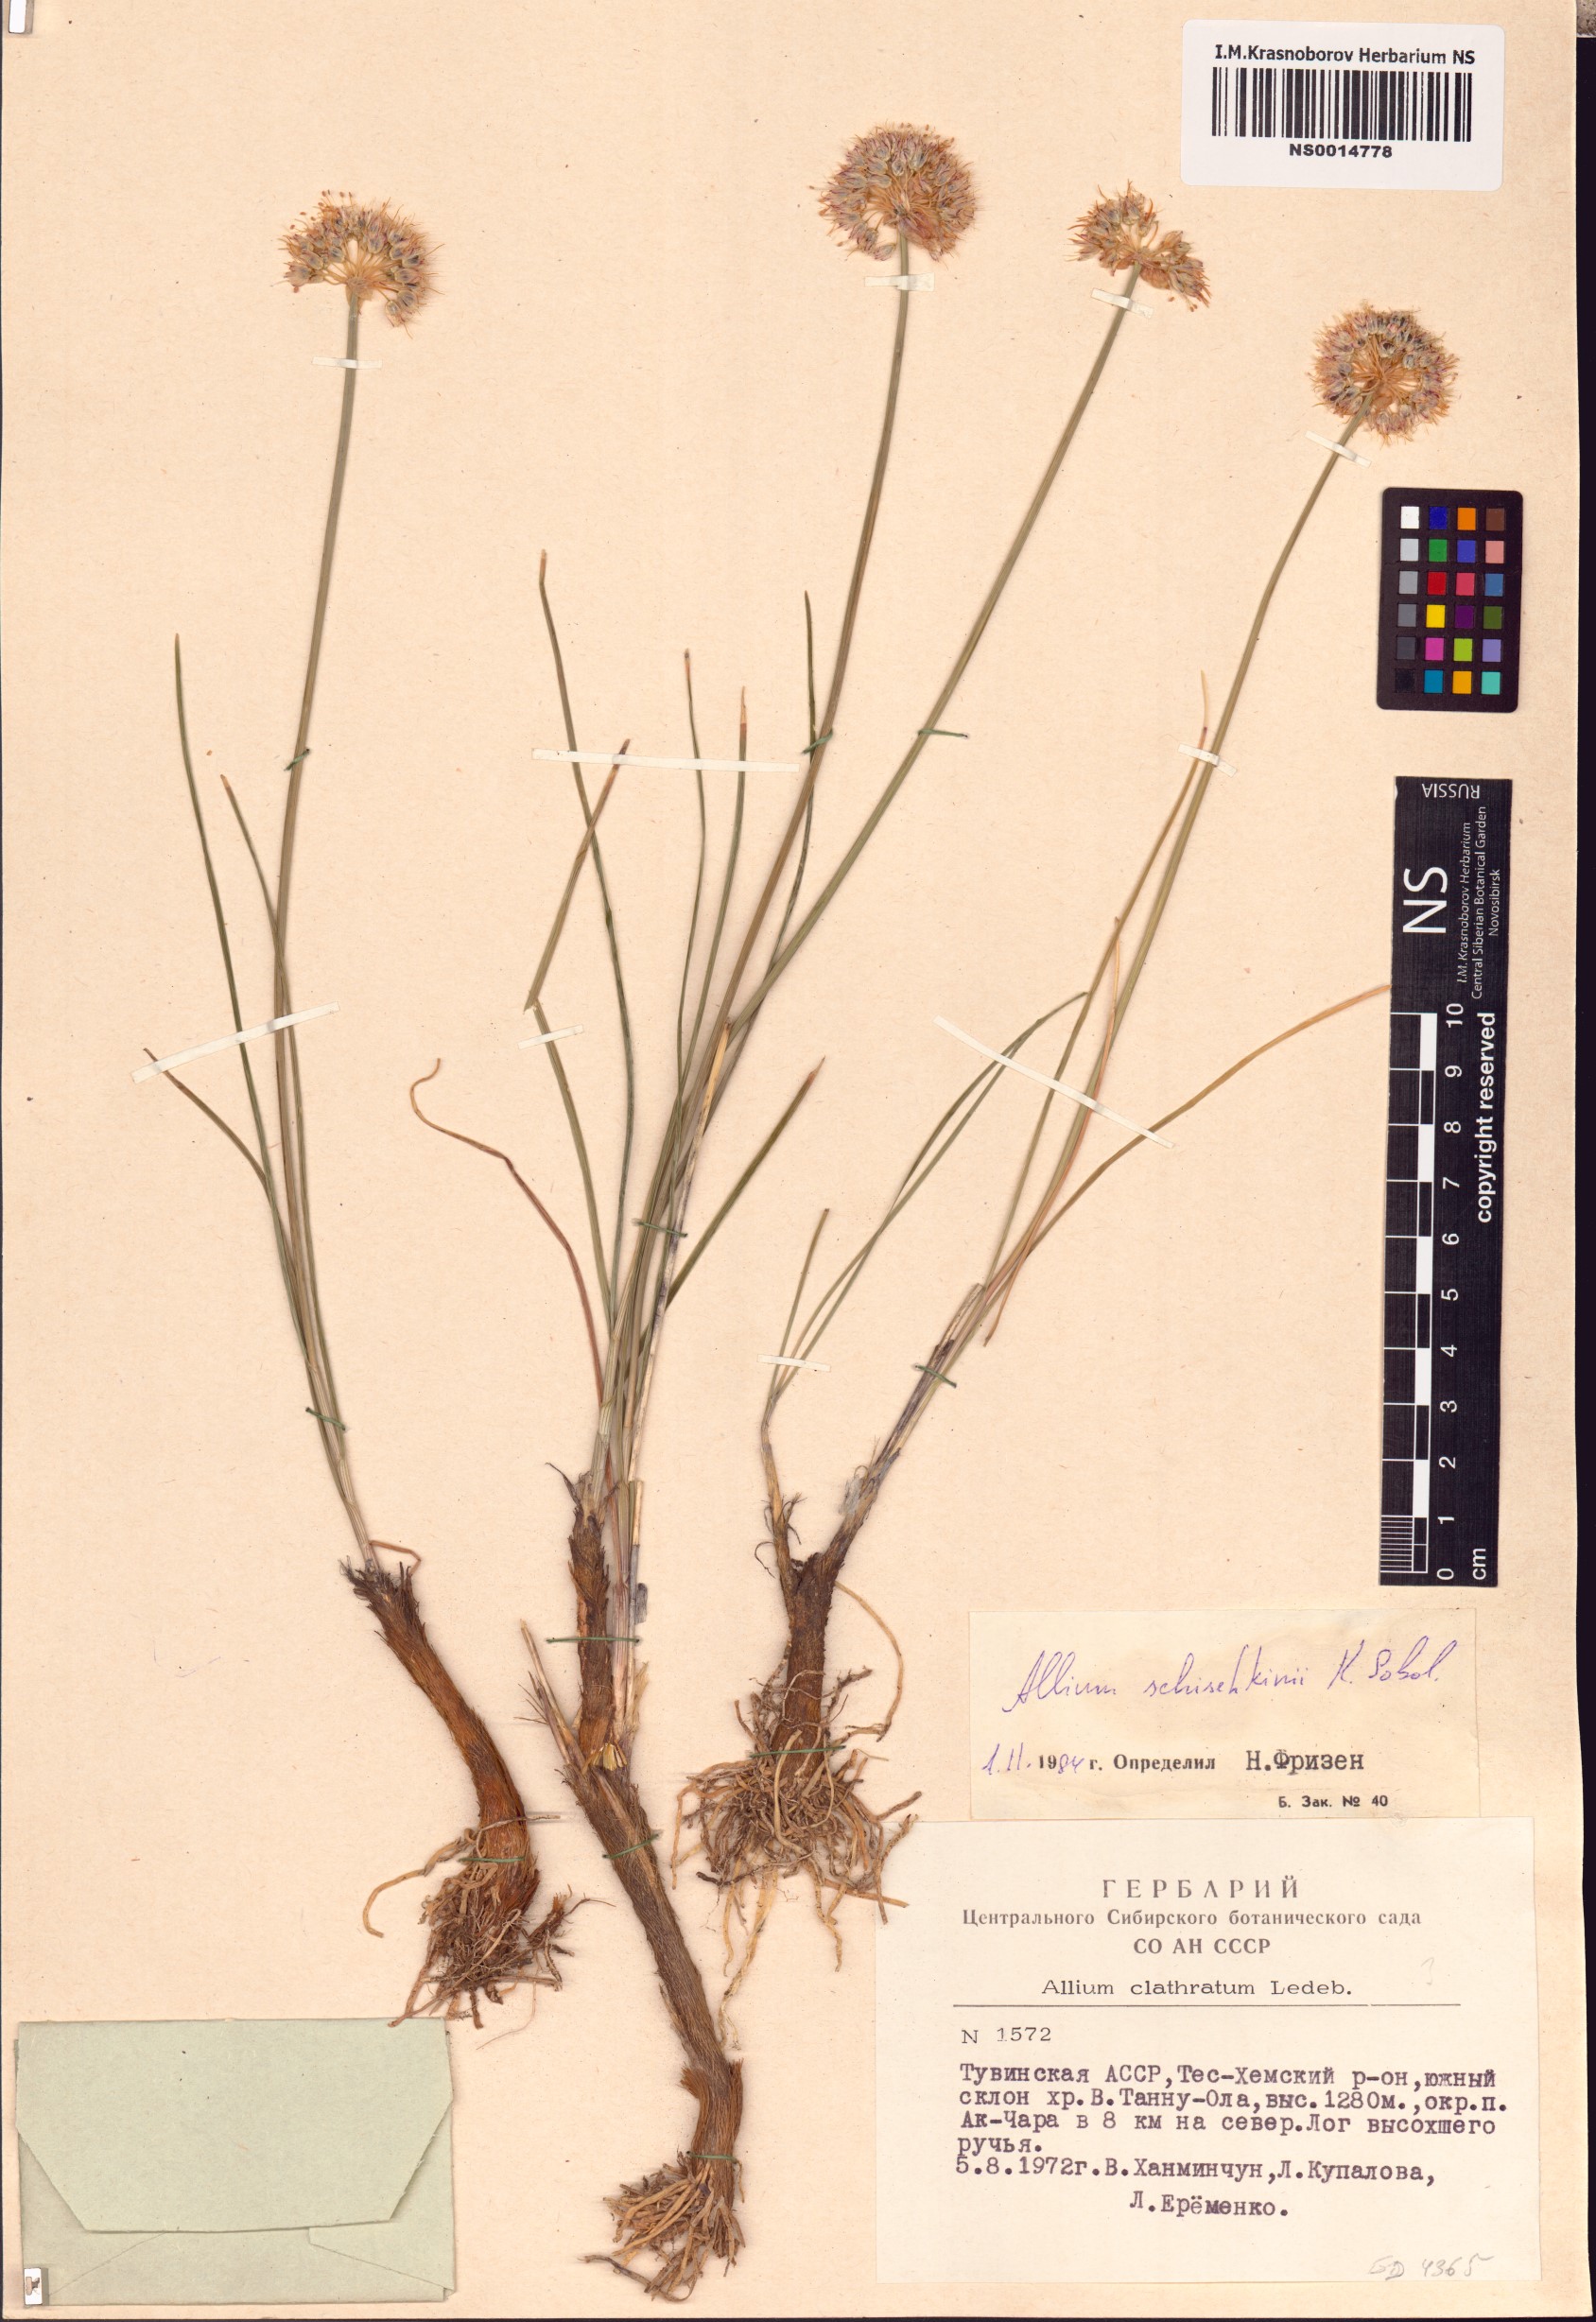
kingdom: Plantae
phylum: Tracheophyta
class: Liliopsida
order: Asparagales
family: Amaryllidaceae
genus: Allium
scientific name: Allium schischkinii
